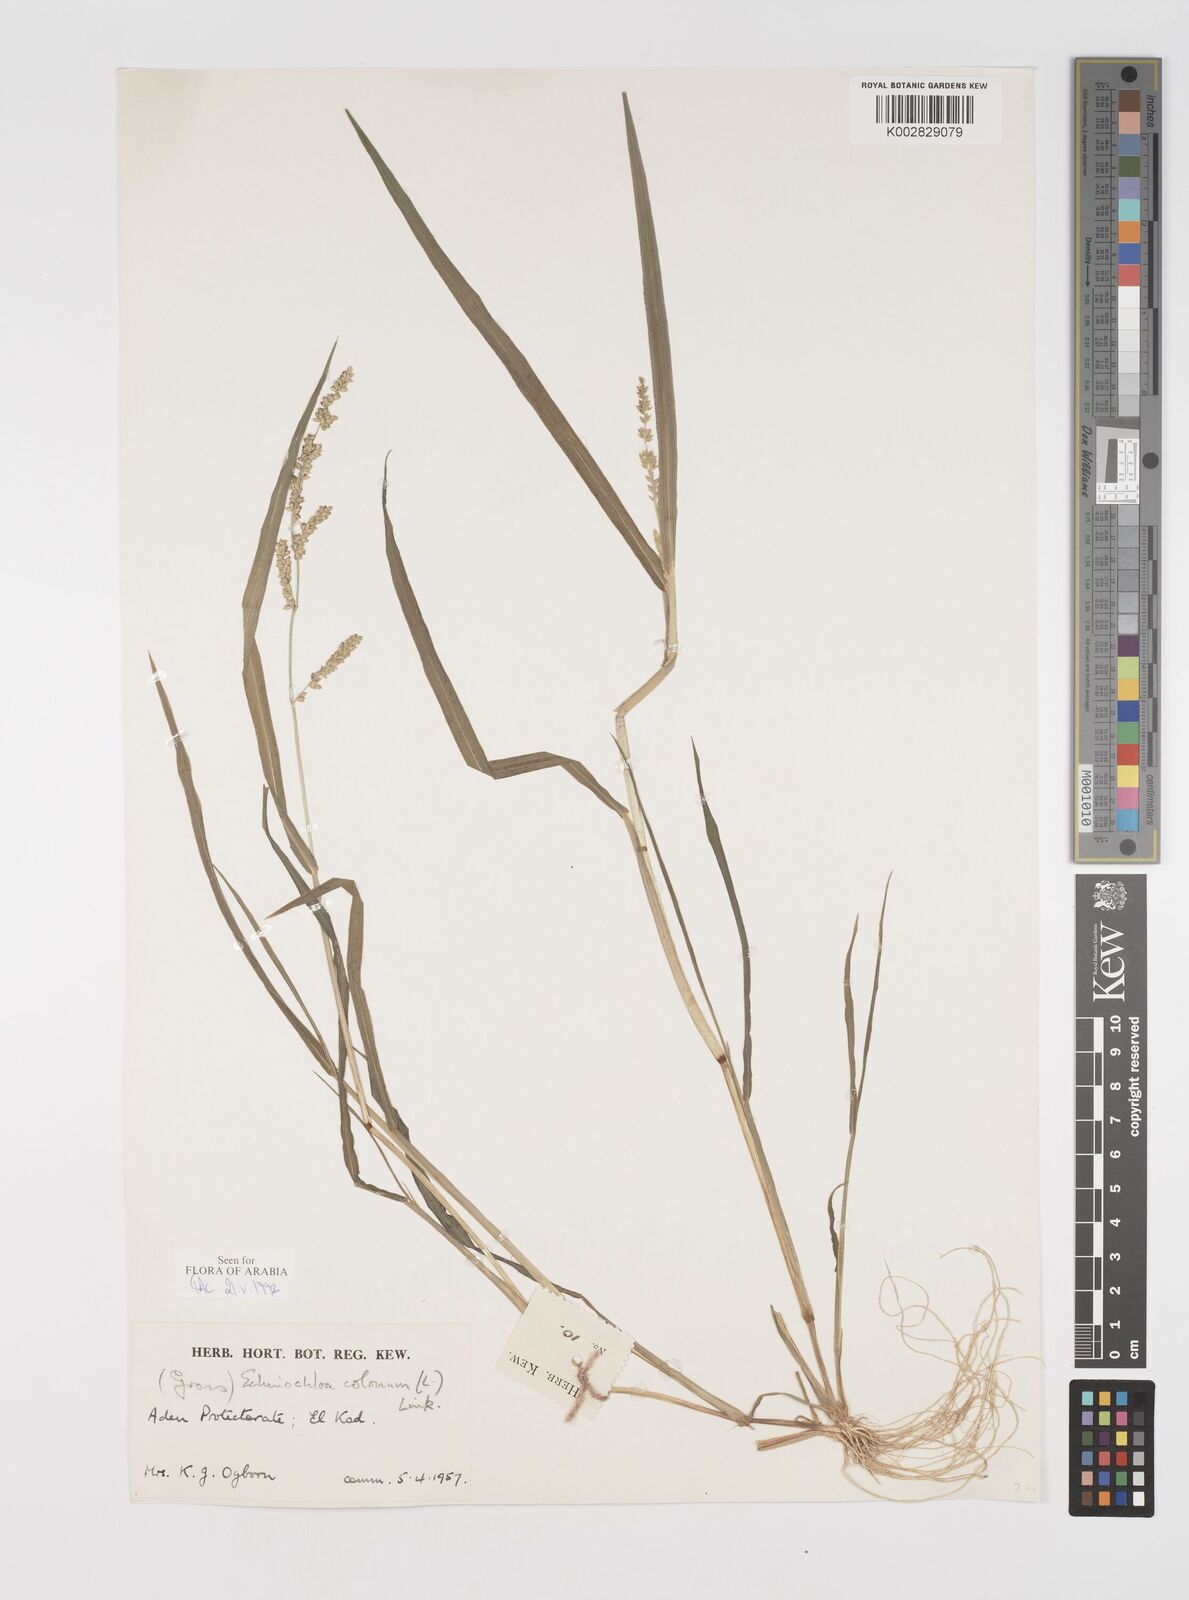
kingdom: Plantae
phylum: Tracheophyta
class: Liliopsida
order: Poales
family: Poaceae
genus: Echinochloa
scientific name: Echinochloa colonum
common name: Jungle rice
